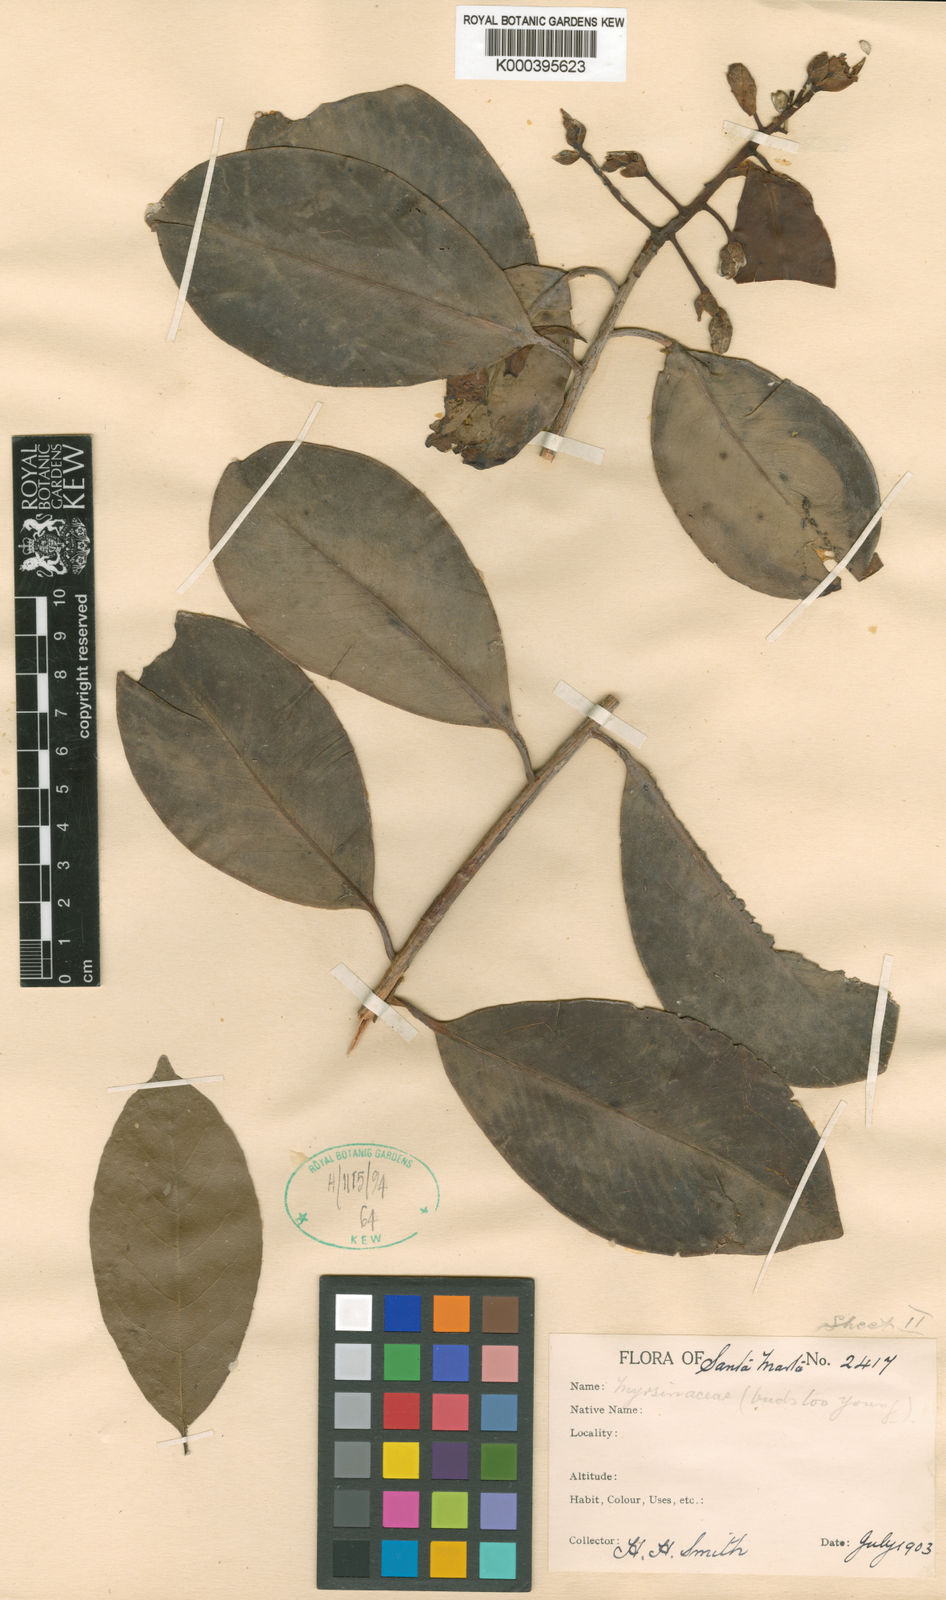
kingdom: Plantae
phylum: Tracheophyta
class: Magnoliopsida
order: Ericales
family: Primulaceae
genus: Ardisia
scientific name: Ardisia sanmartensis
